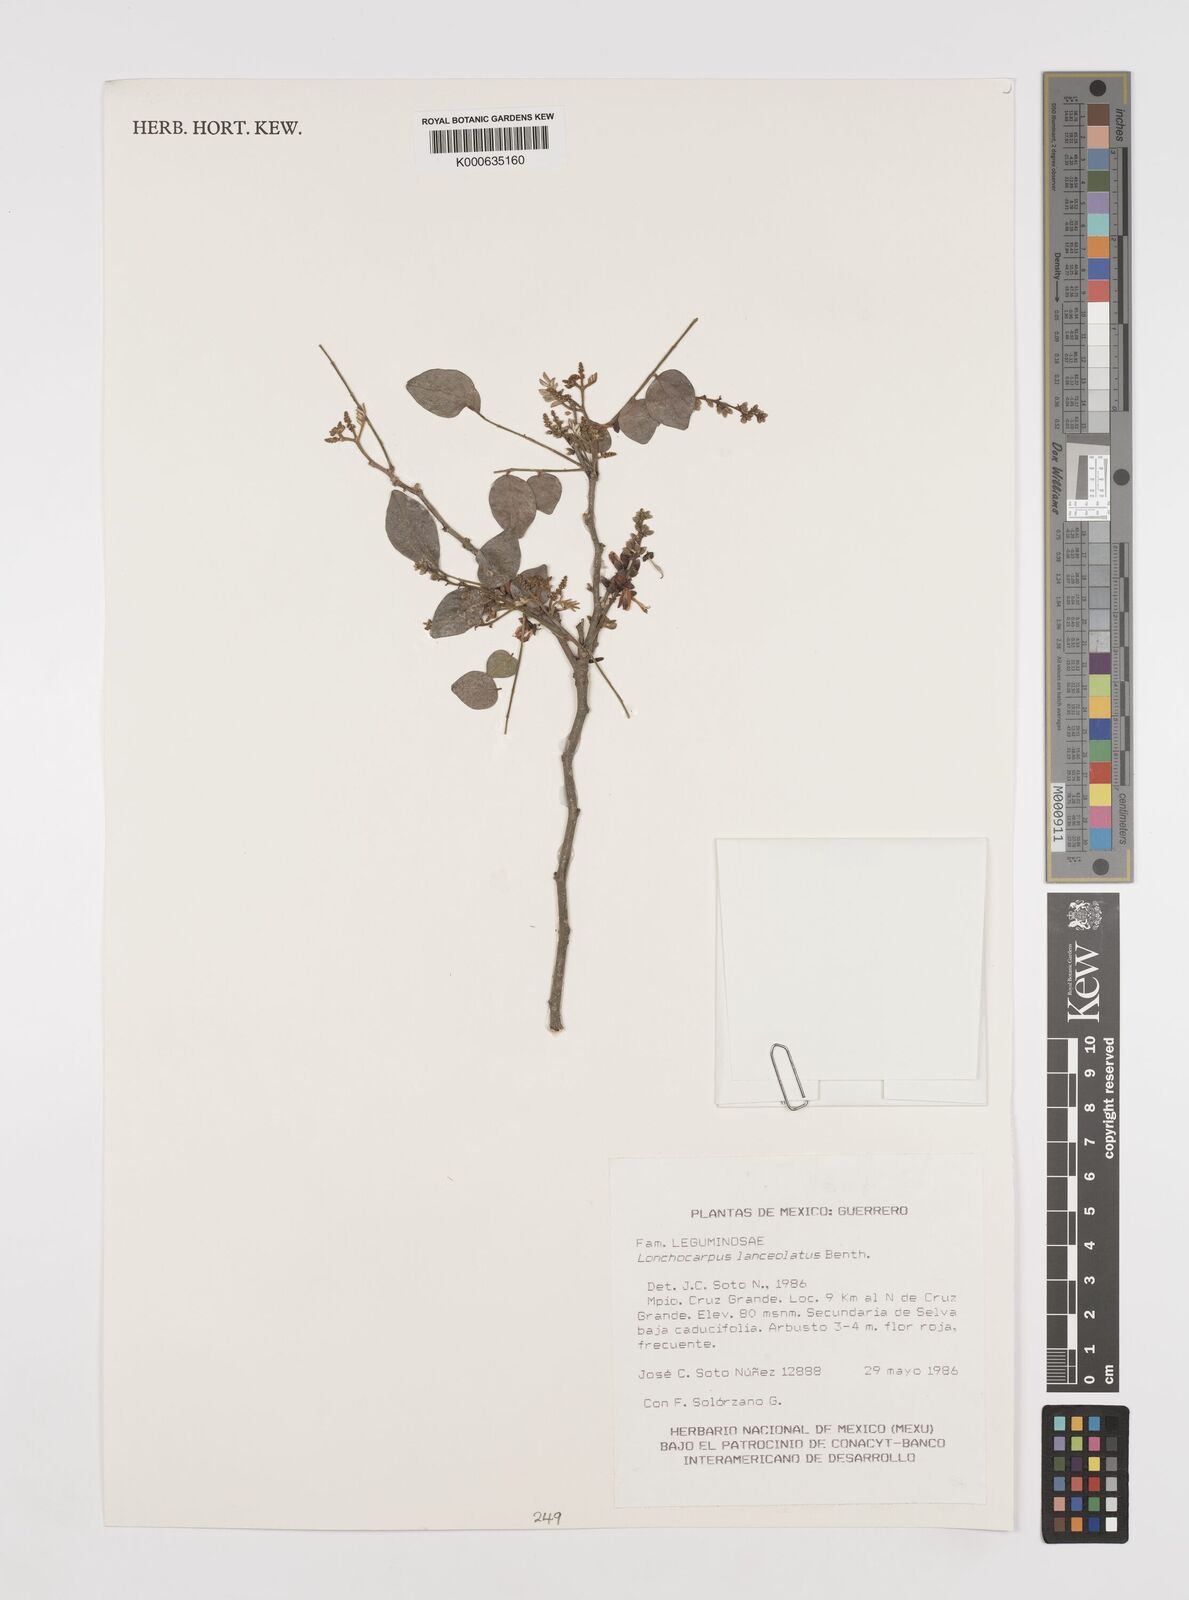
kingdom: Plantae
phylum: Tracheophyta
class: Magnoliopsida
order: Fabales
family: Fabaceae
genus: Lonchocarpus
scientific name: Lonchocarpus lanceolatus
